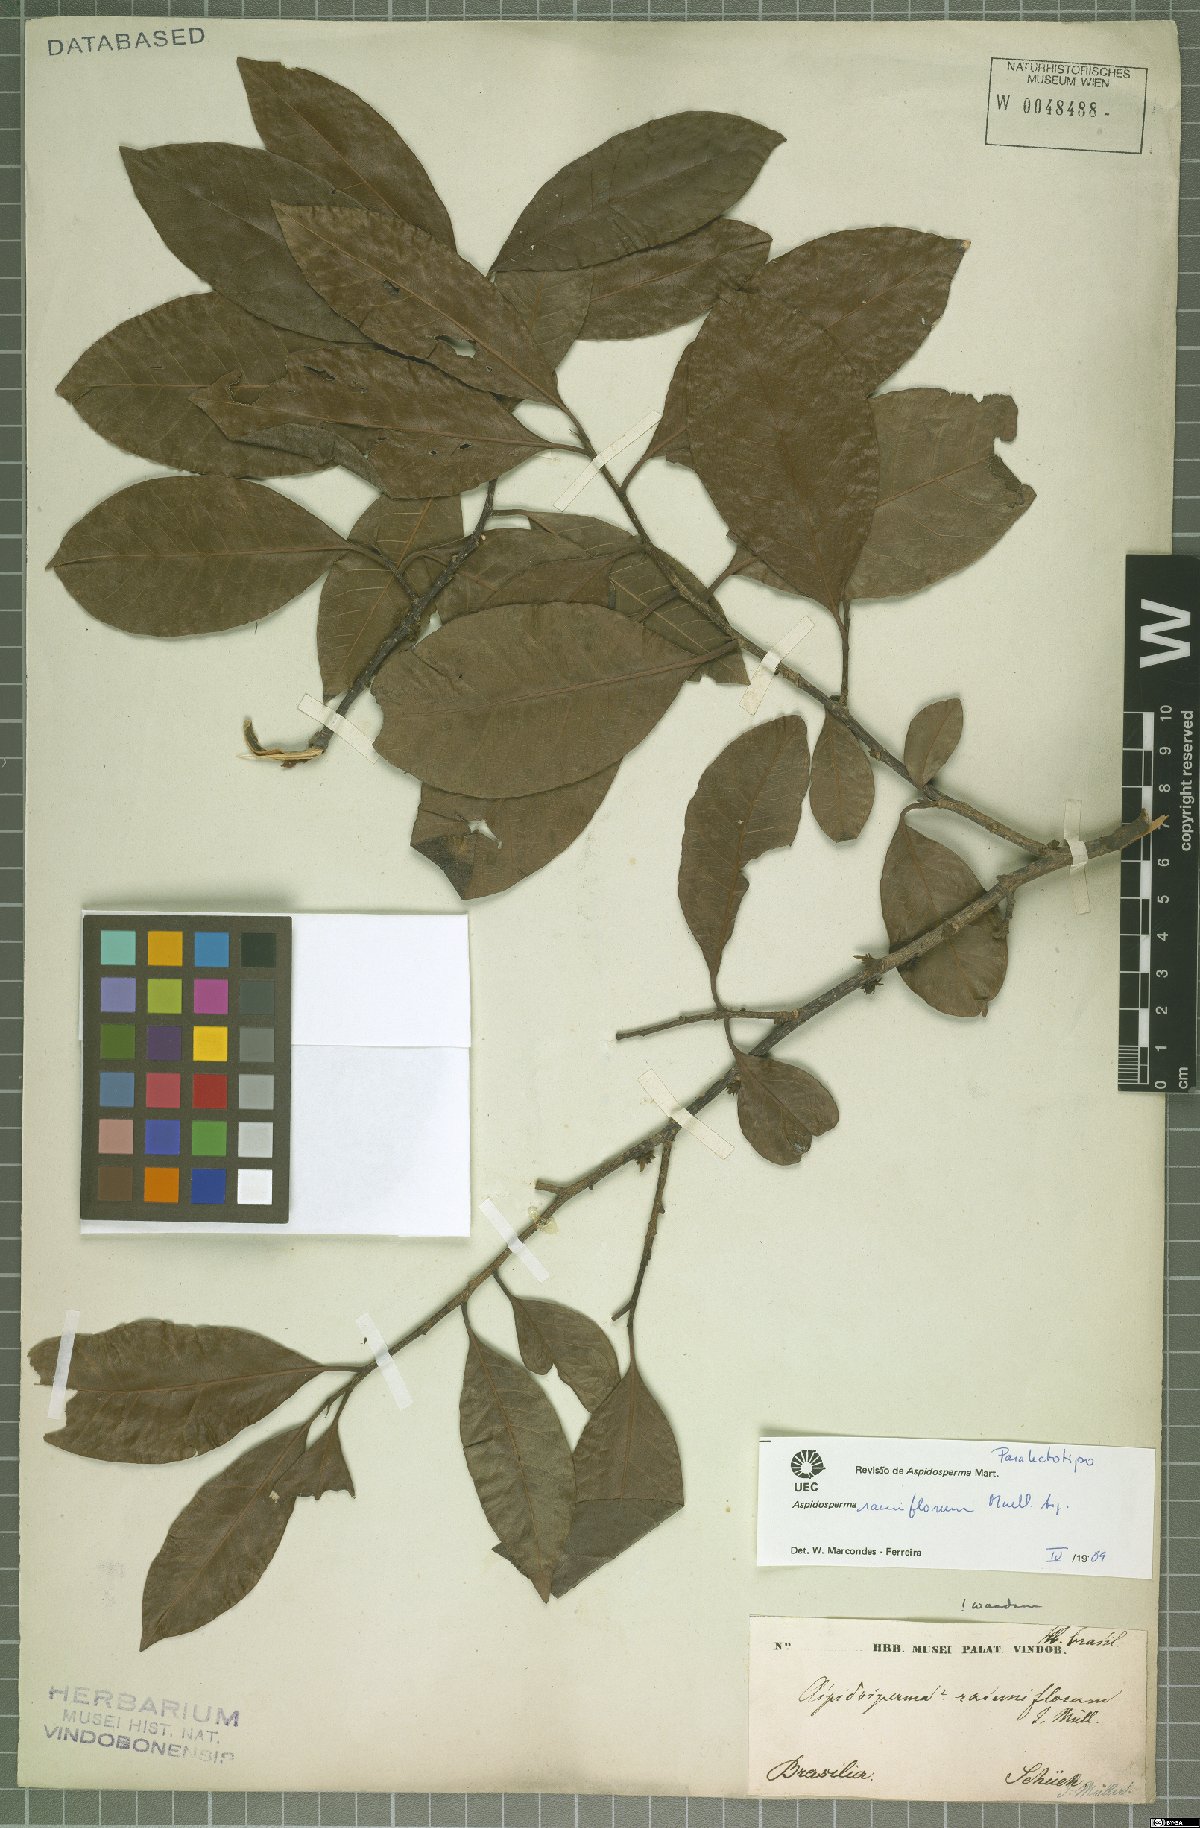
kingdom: Plantae
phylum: Tracheophyta
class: Magnoliopsida
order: Gentianales
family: Apocynaceae
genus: Aspidosperma
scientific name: Aspidosperma ramiflorum
